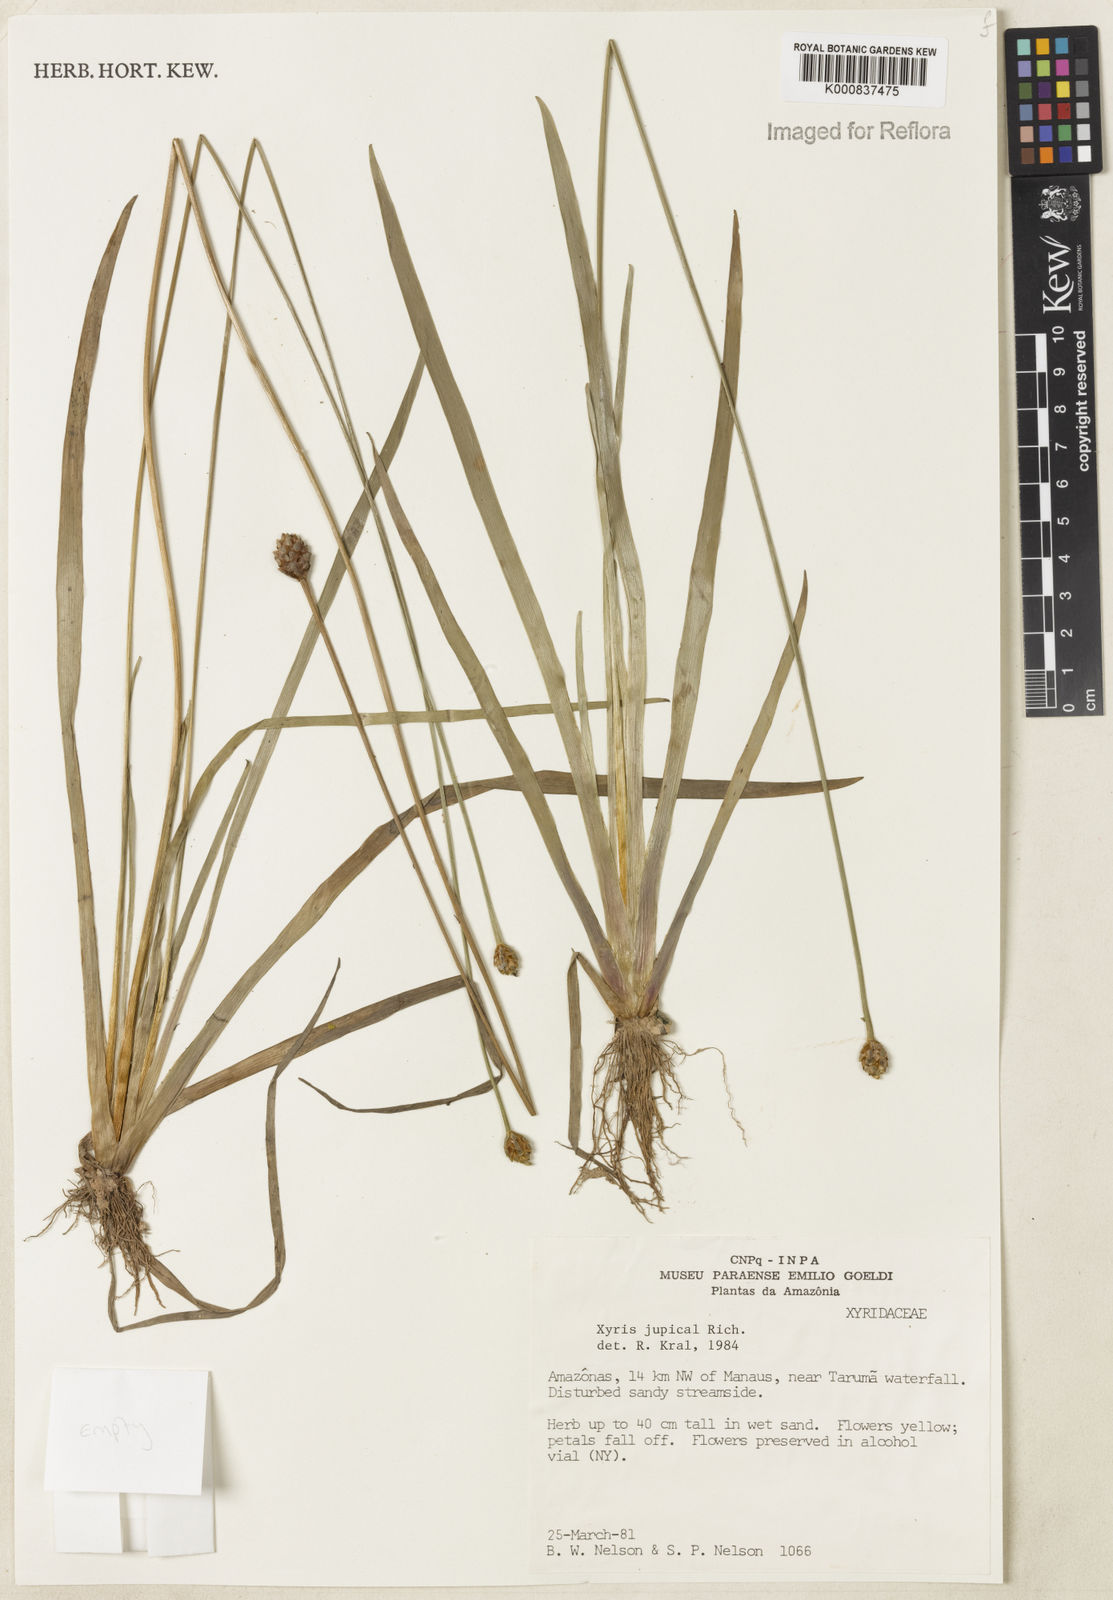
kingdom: Plantae
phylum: Tracheophyta
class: Liliopsida
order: Poales
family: Xyridaceae
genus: Xyris
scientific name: Xyris jupicai
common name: Richard's yelloweyed grass
